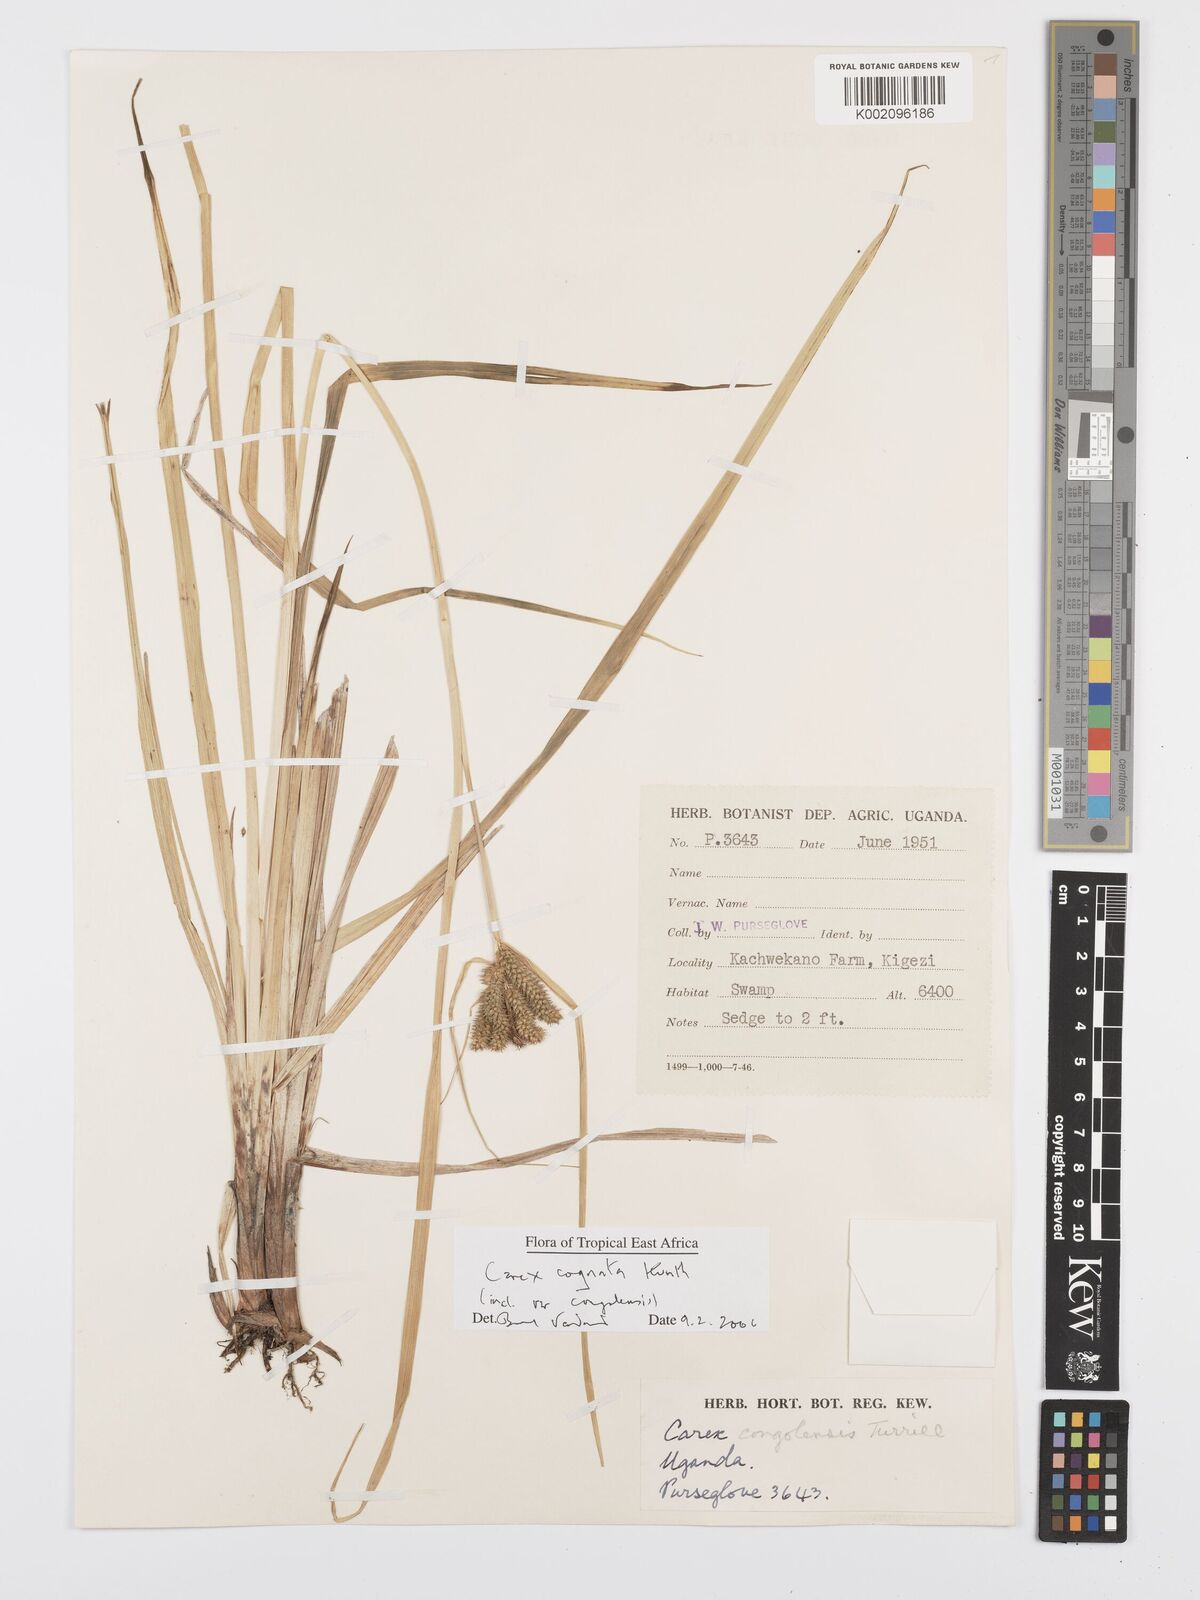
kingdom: Plantae
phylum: Tracheophyta
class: Liliopsida
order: Poales
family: Cyperaceae
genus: Carex
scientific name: Carex congolensis
